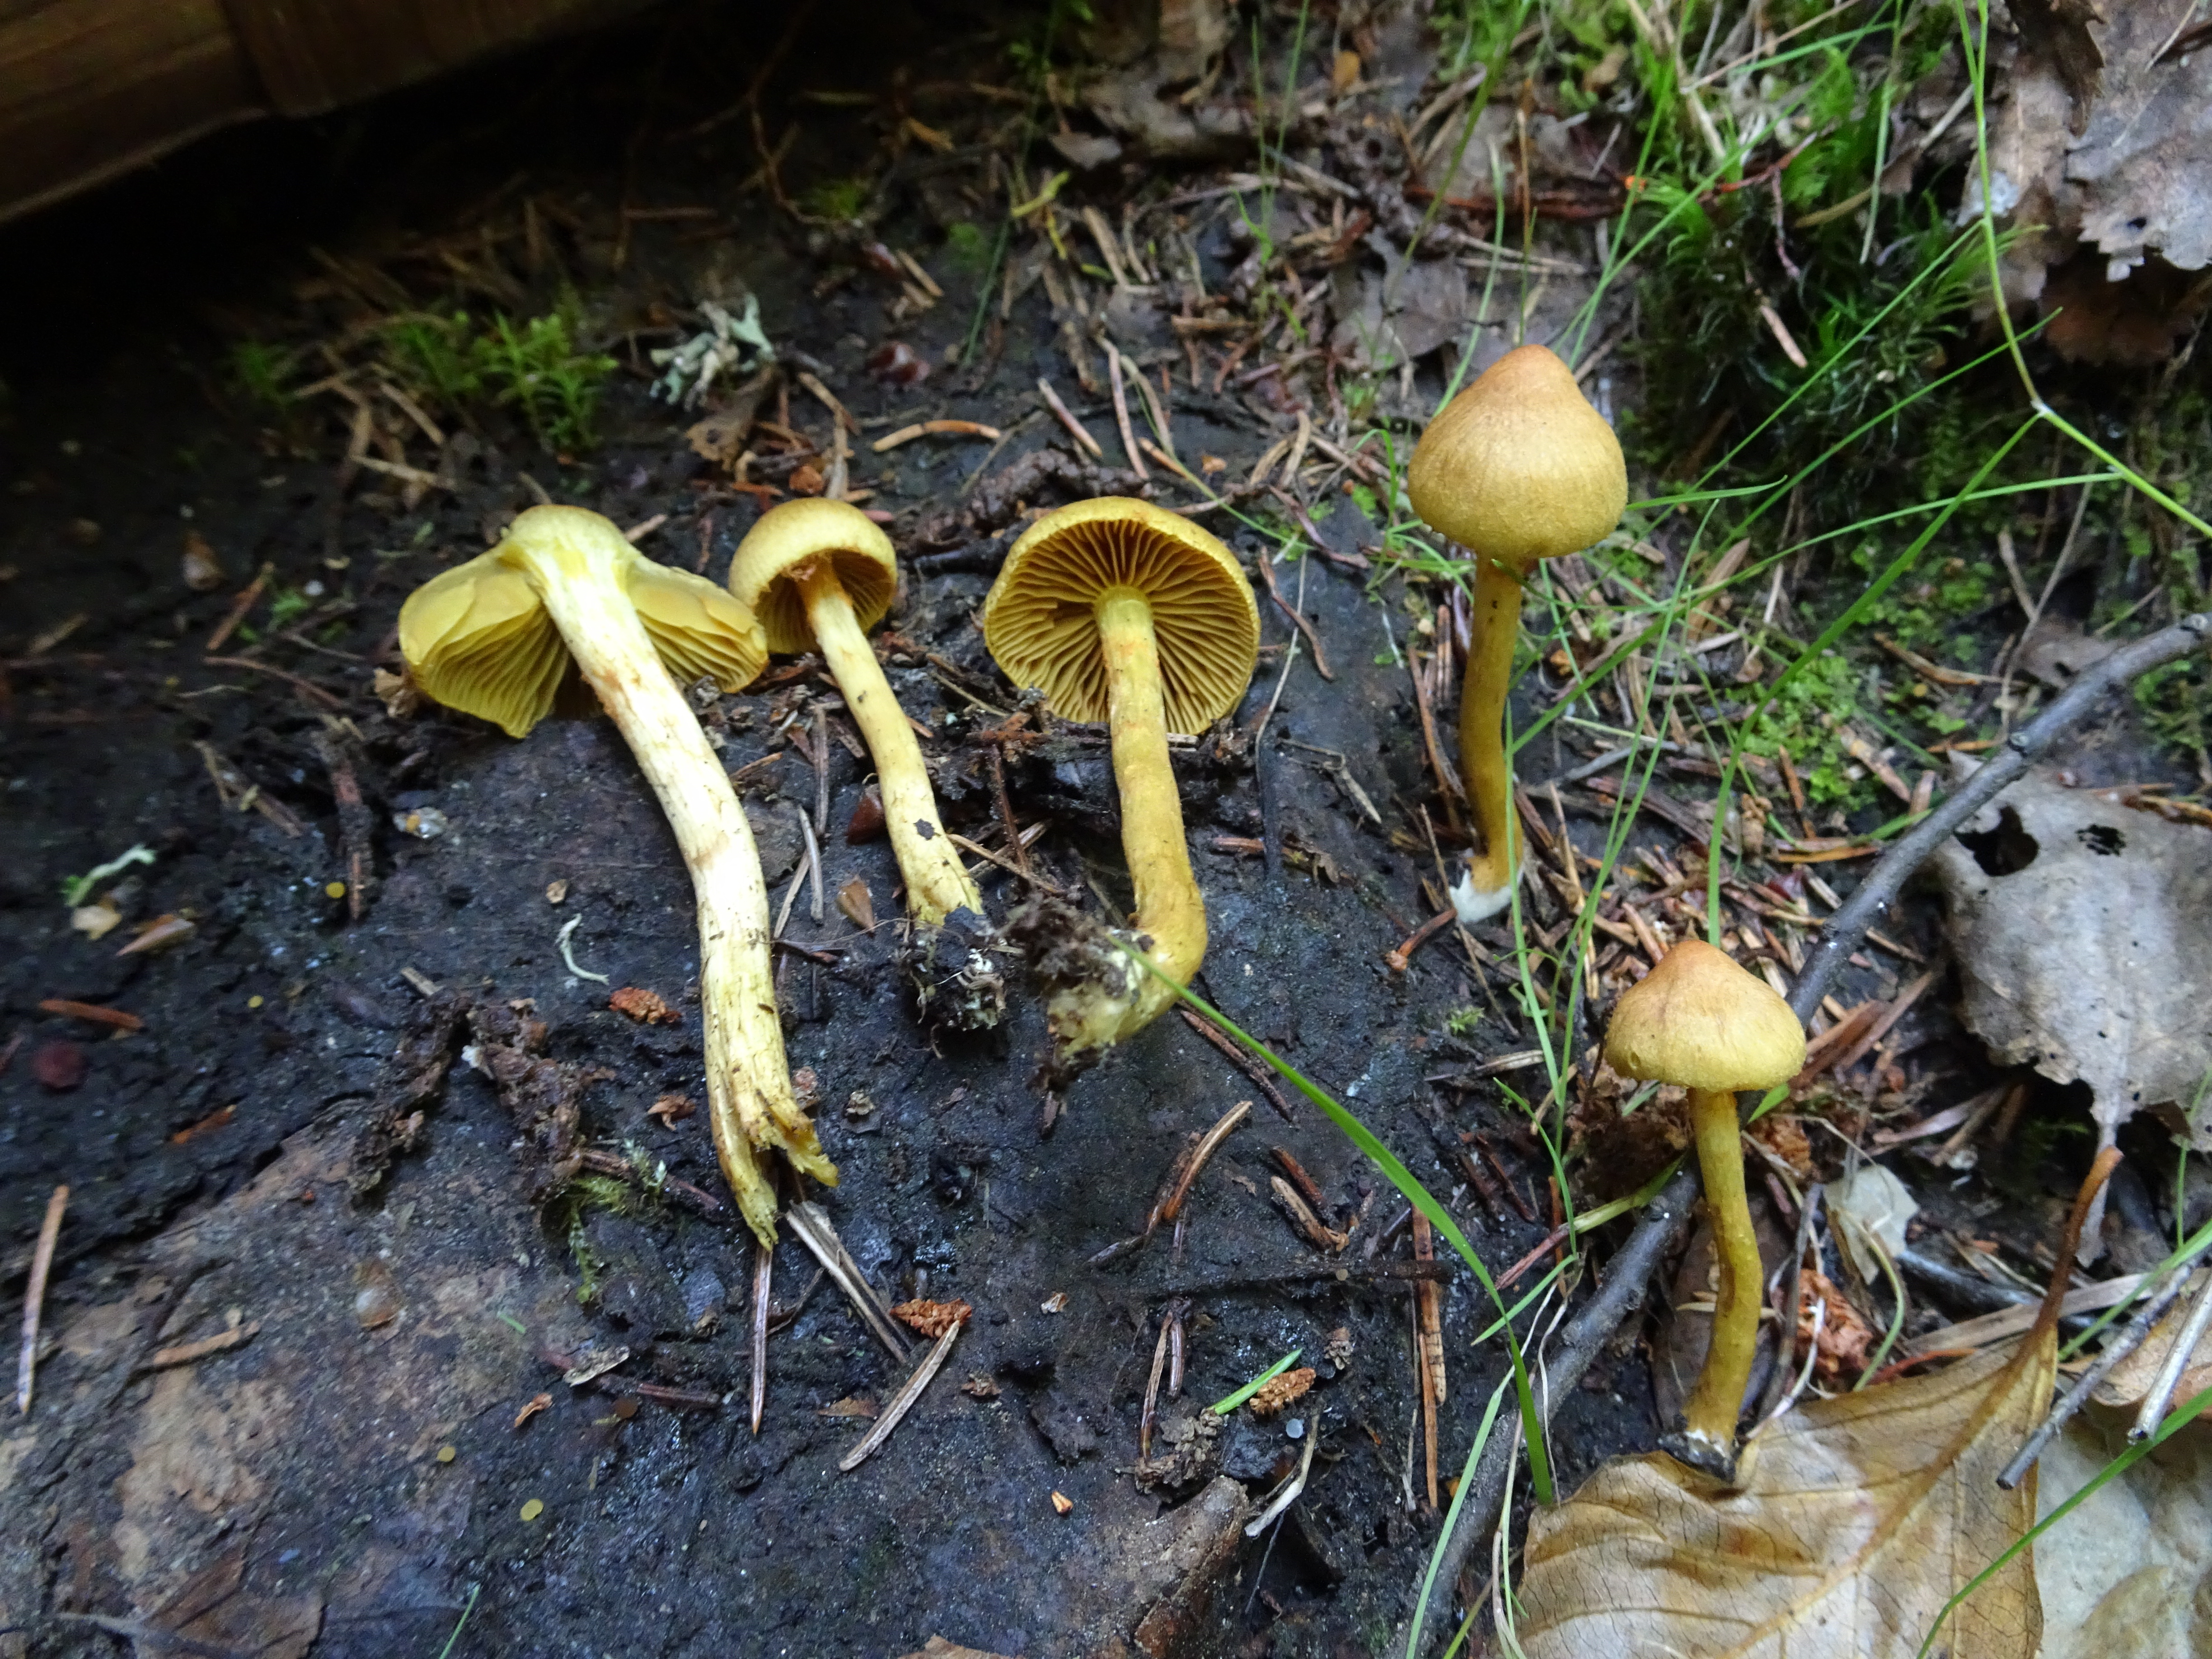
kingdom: Fungi
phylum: Basidiomycota
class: Agaricomycetes
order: Agaricales
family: Cortinariaceae
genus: Cortinarius
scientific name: Cortinarius
